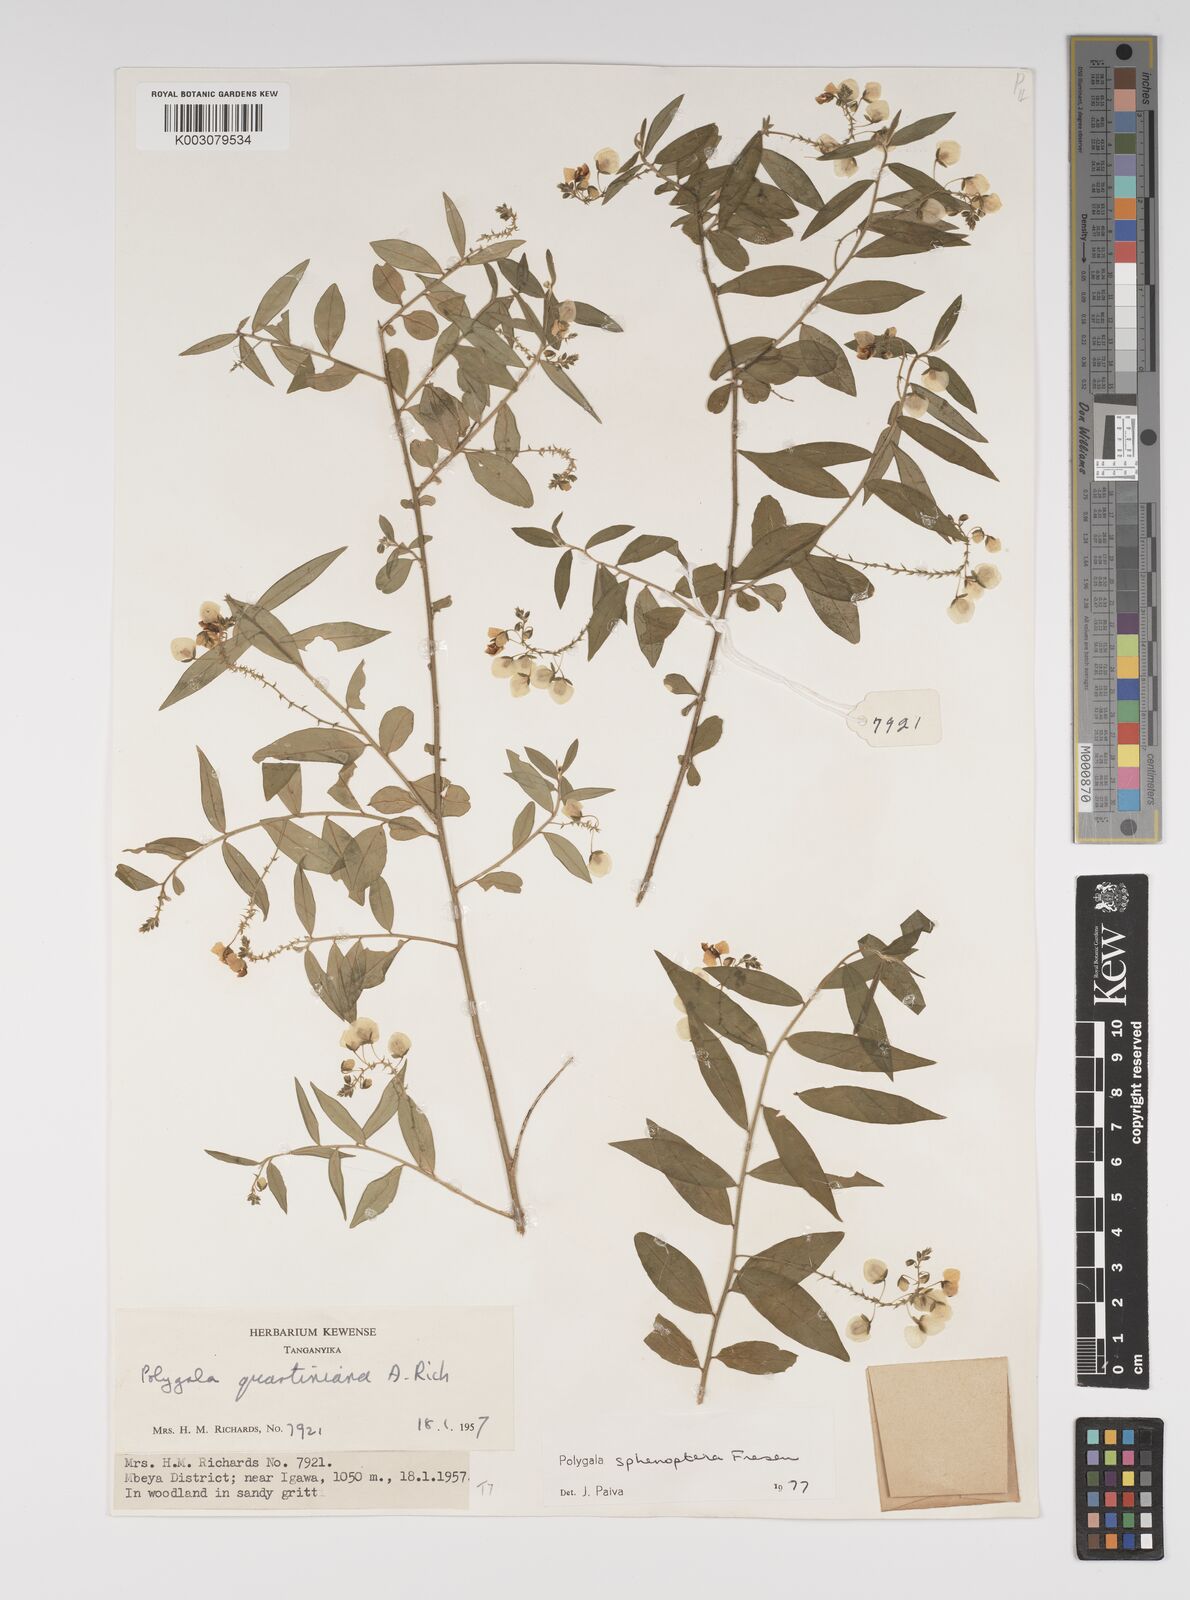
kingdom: Plantae
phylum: Tracheophyta
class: Magnoliopsida
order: Fabales
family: Polygalaceae
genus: Polygala
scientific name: Polygala sphenoptera
